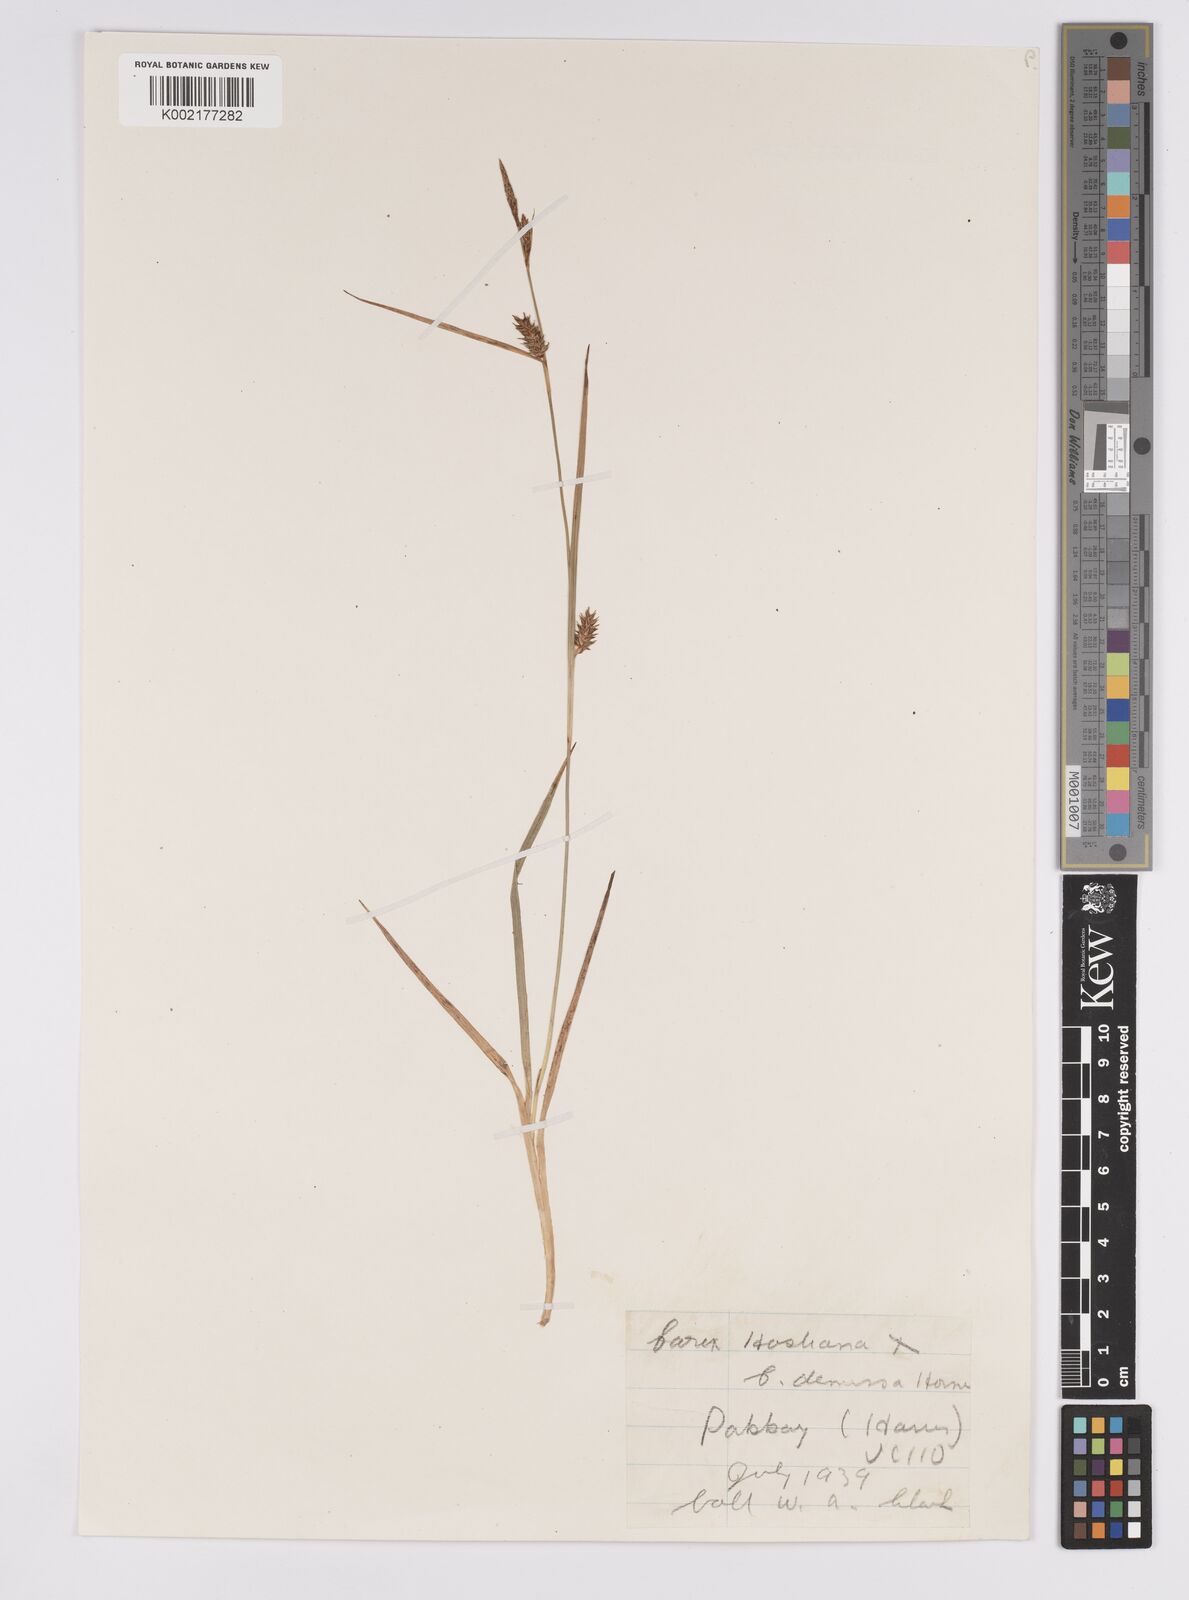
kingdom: Plantae
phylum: Tracheophyta
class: Liliopsida
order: Poales
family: Cyperaceae
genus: Carex
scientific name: Carex hostiana
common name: Tawny sedge
